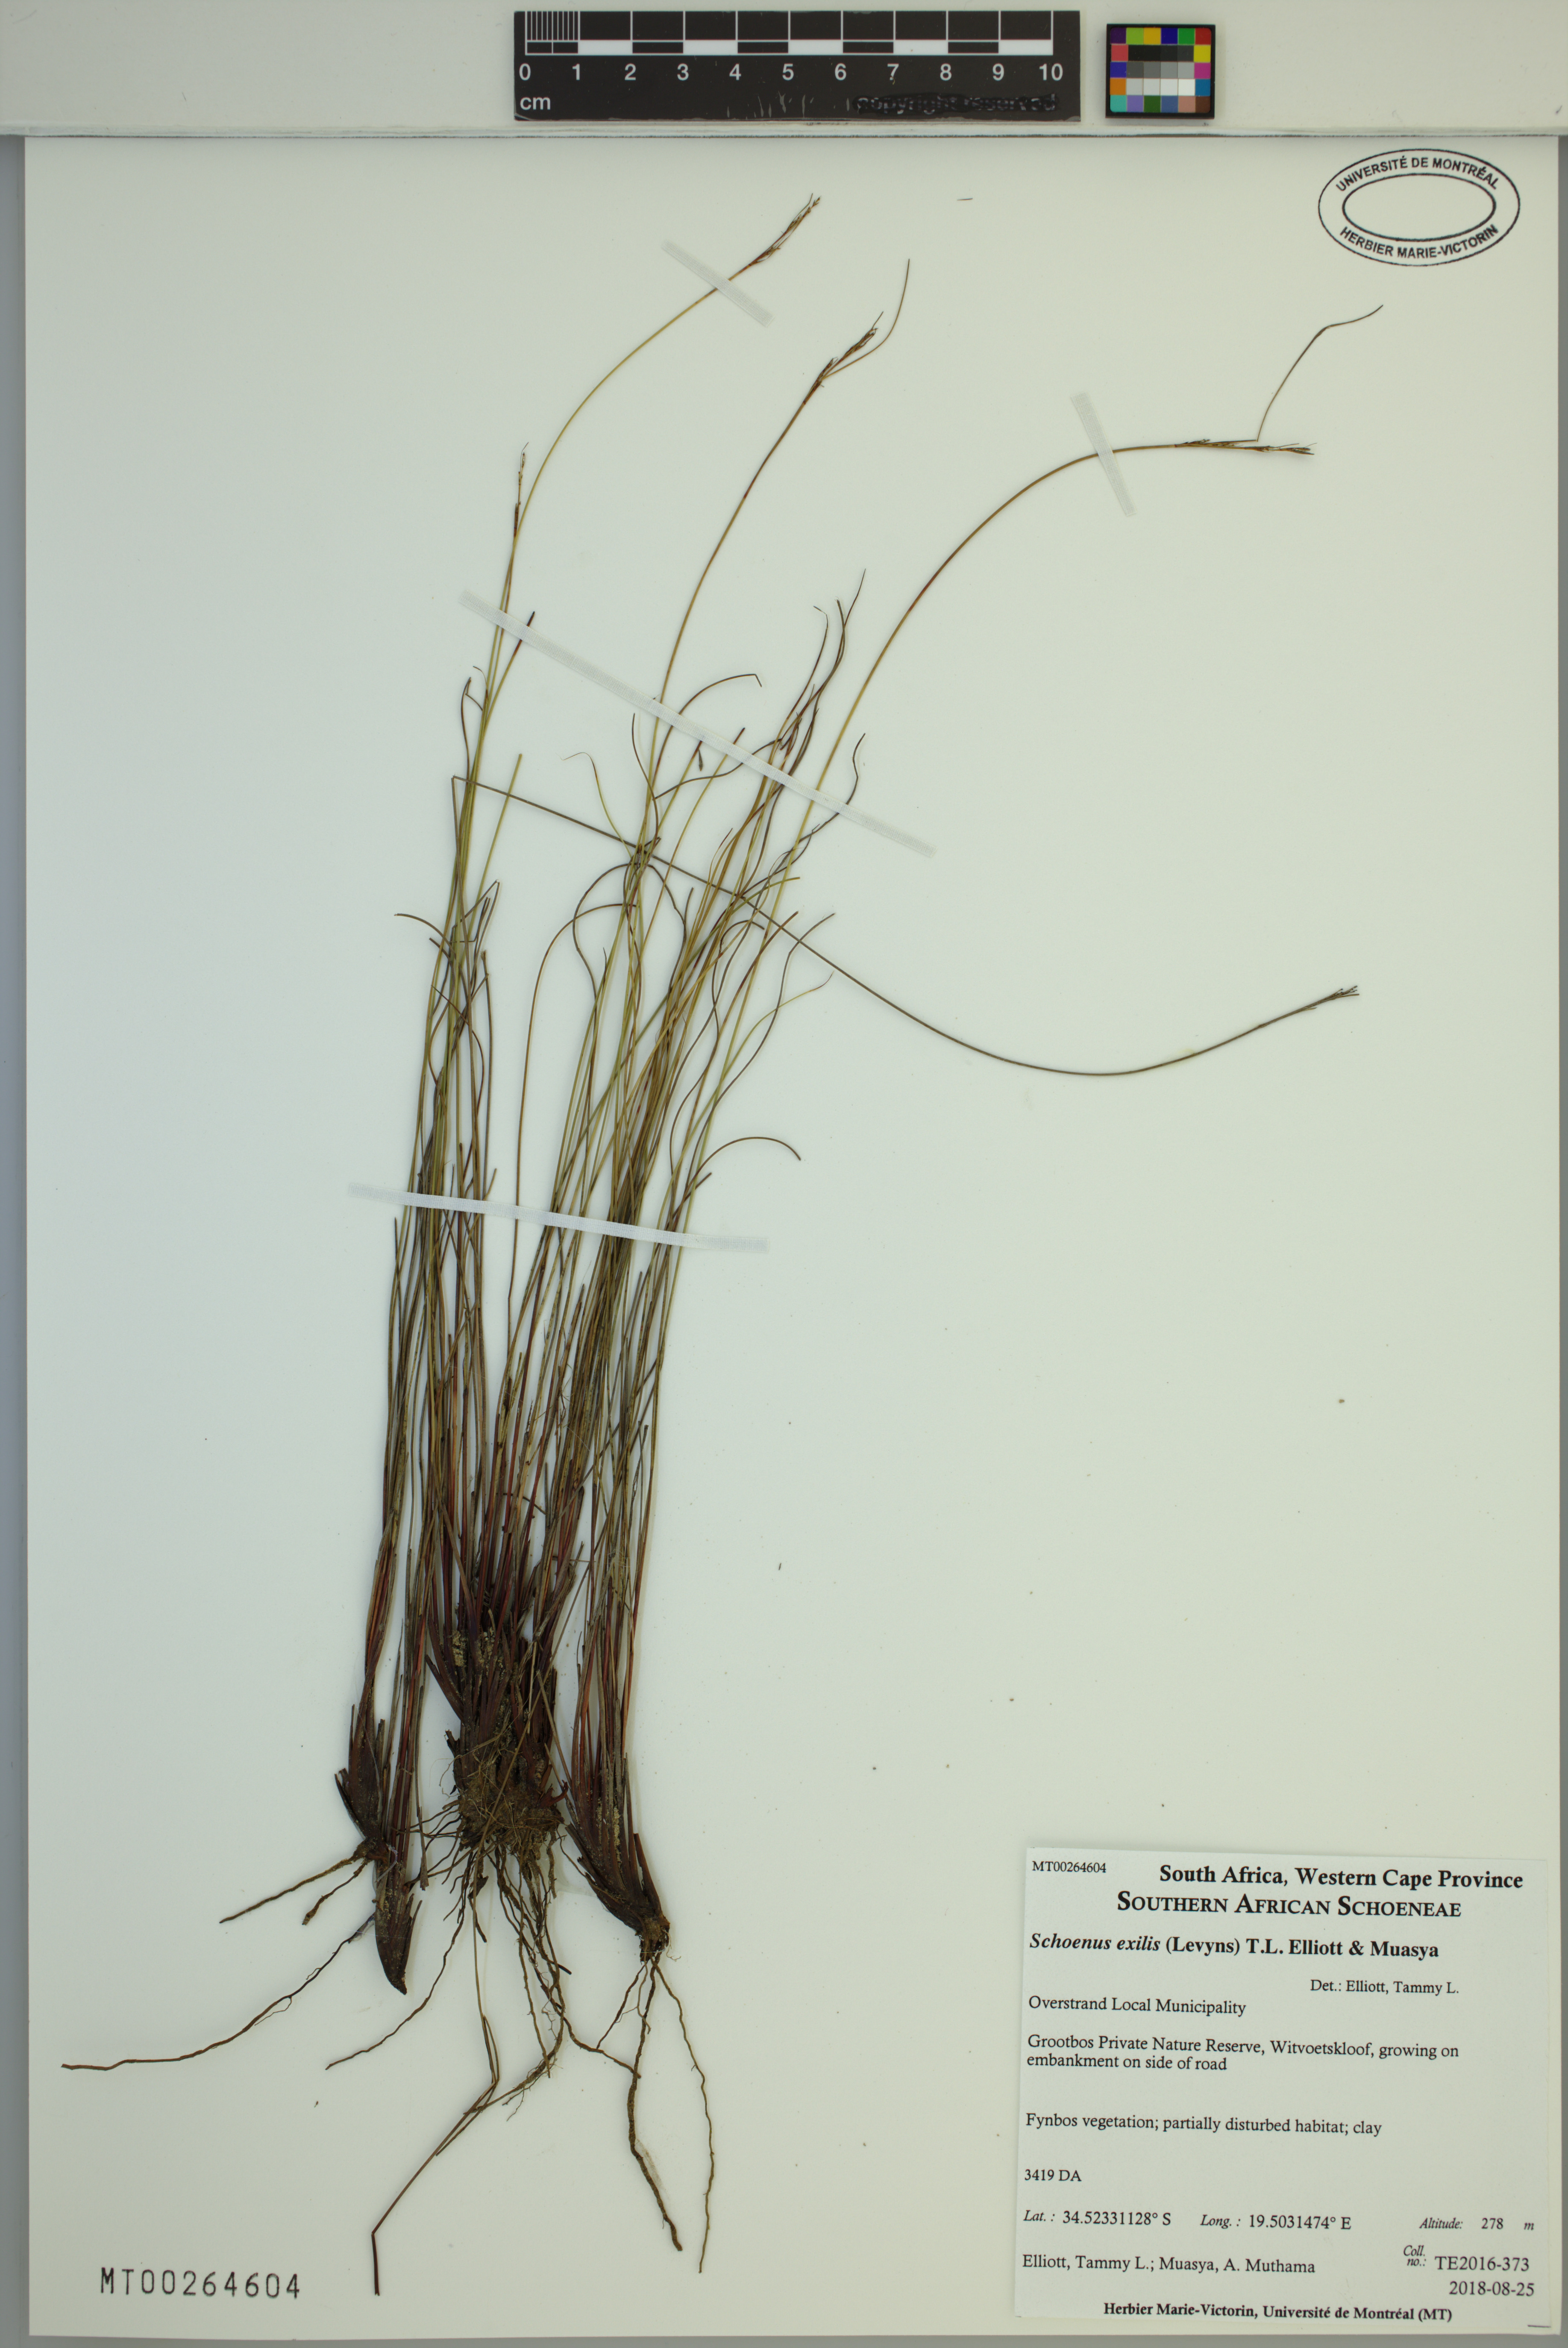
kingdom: Plantae
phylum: Tracheophyta
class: Liliopsida
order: Poales
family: Cyperaceae
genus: Schoenus
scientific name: Schoenus exilis
